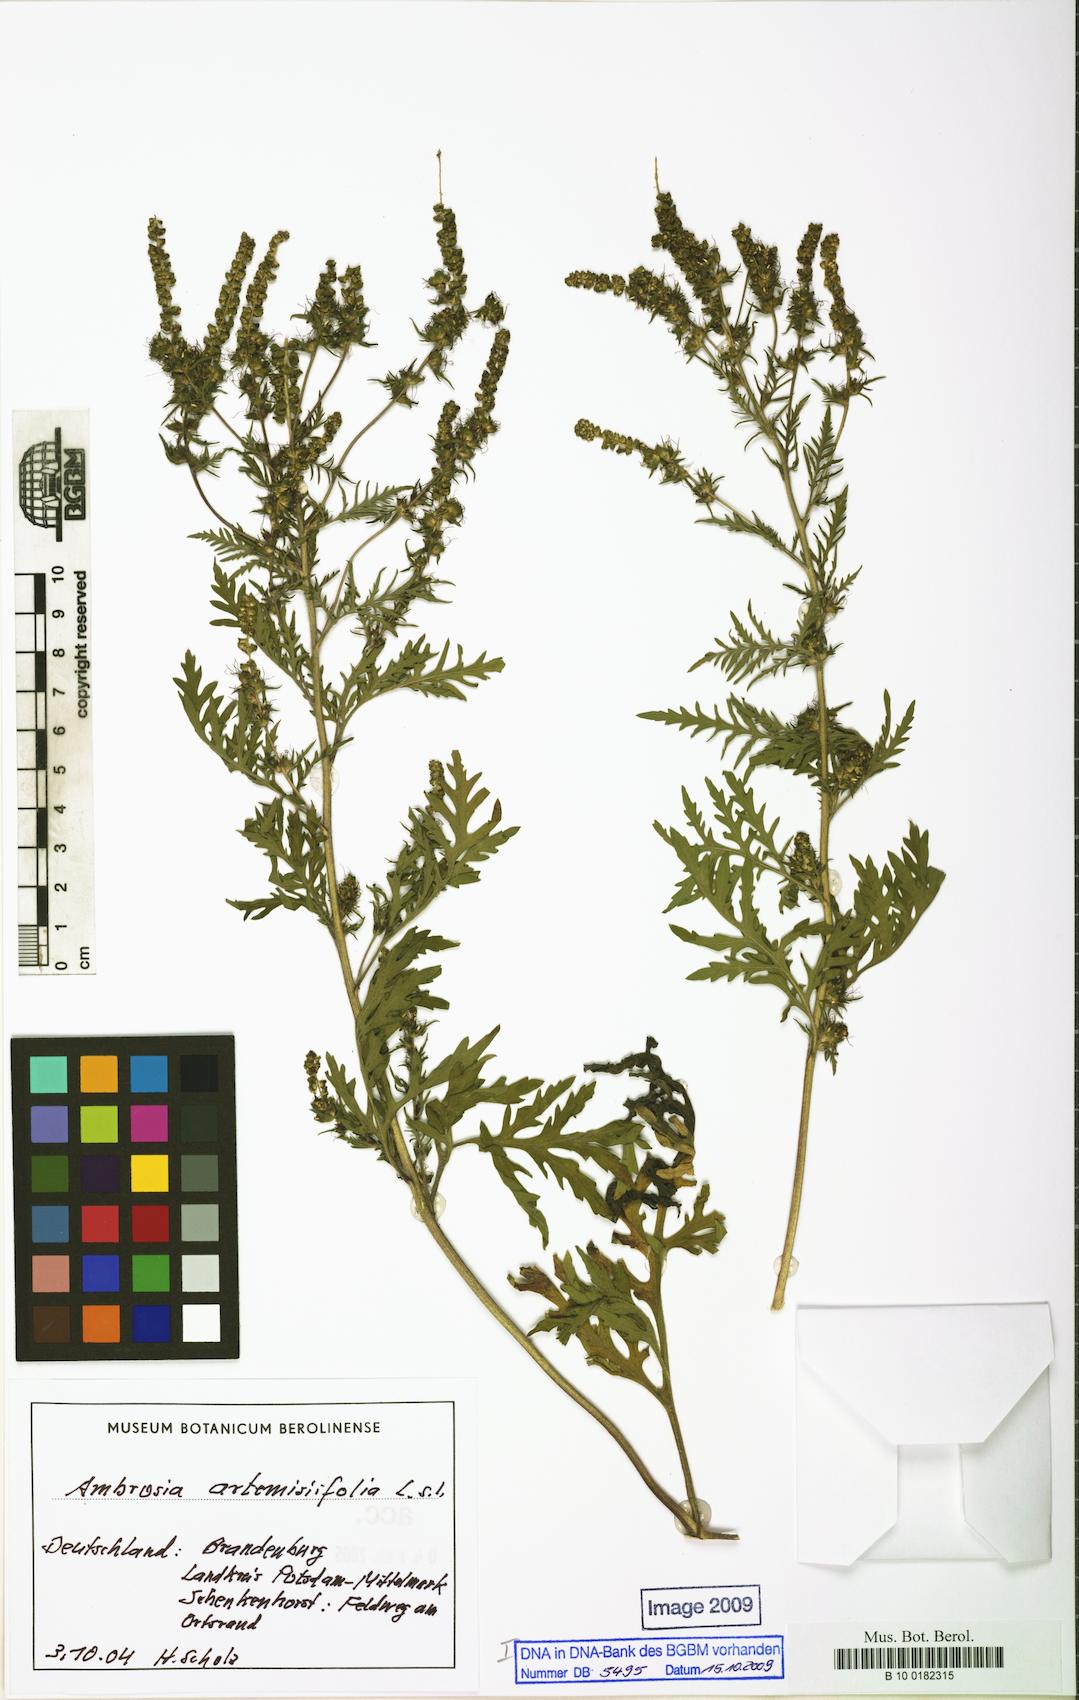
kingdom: Plantae
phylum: Tracheophyta
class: Magnoliopsida
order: Asterales
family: Asteraceae
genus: Ambrosia
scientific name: Ambrosia artemisiifolia
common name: Annual ragweed
